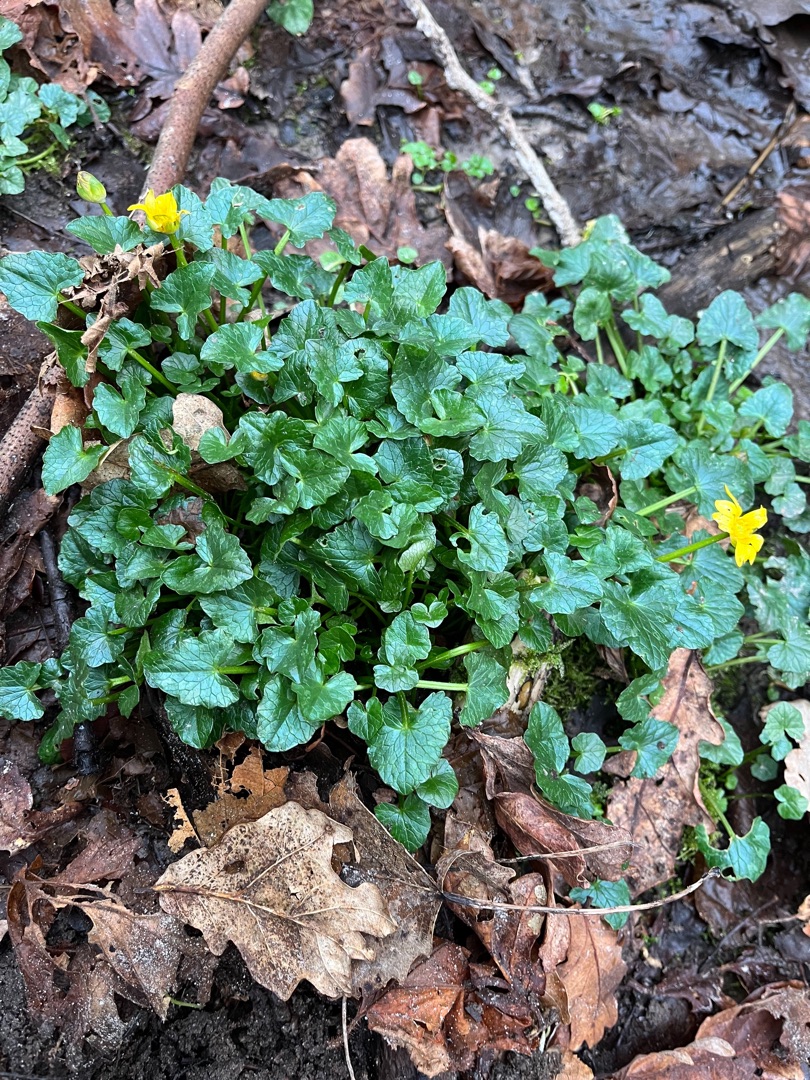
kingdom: Plantae
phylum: Tracheophyta
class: Magnoliopsida
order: Ranunculales
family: Ranunculaceae
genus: Ficaria
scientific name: Ficaria verna
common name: Vorterod
